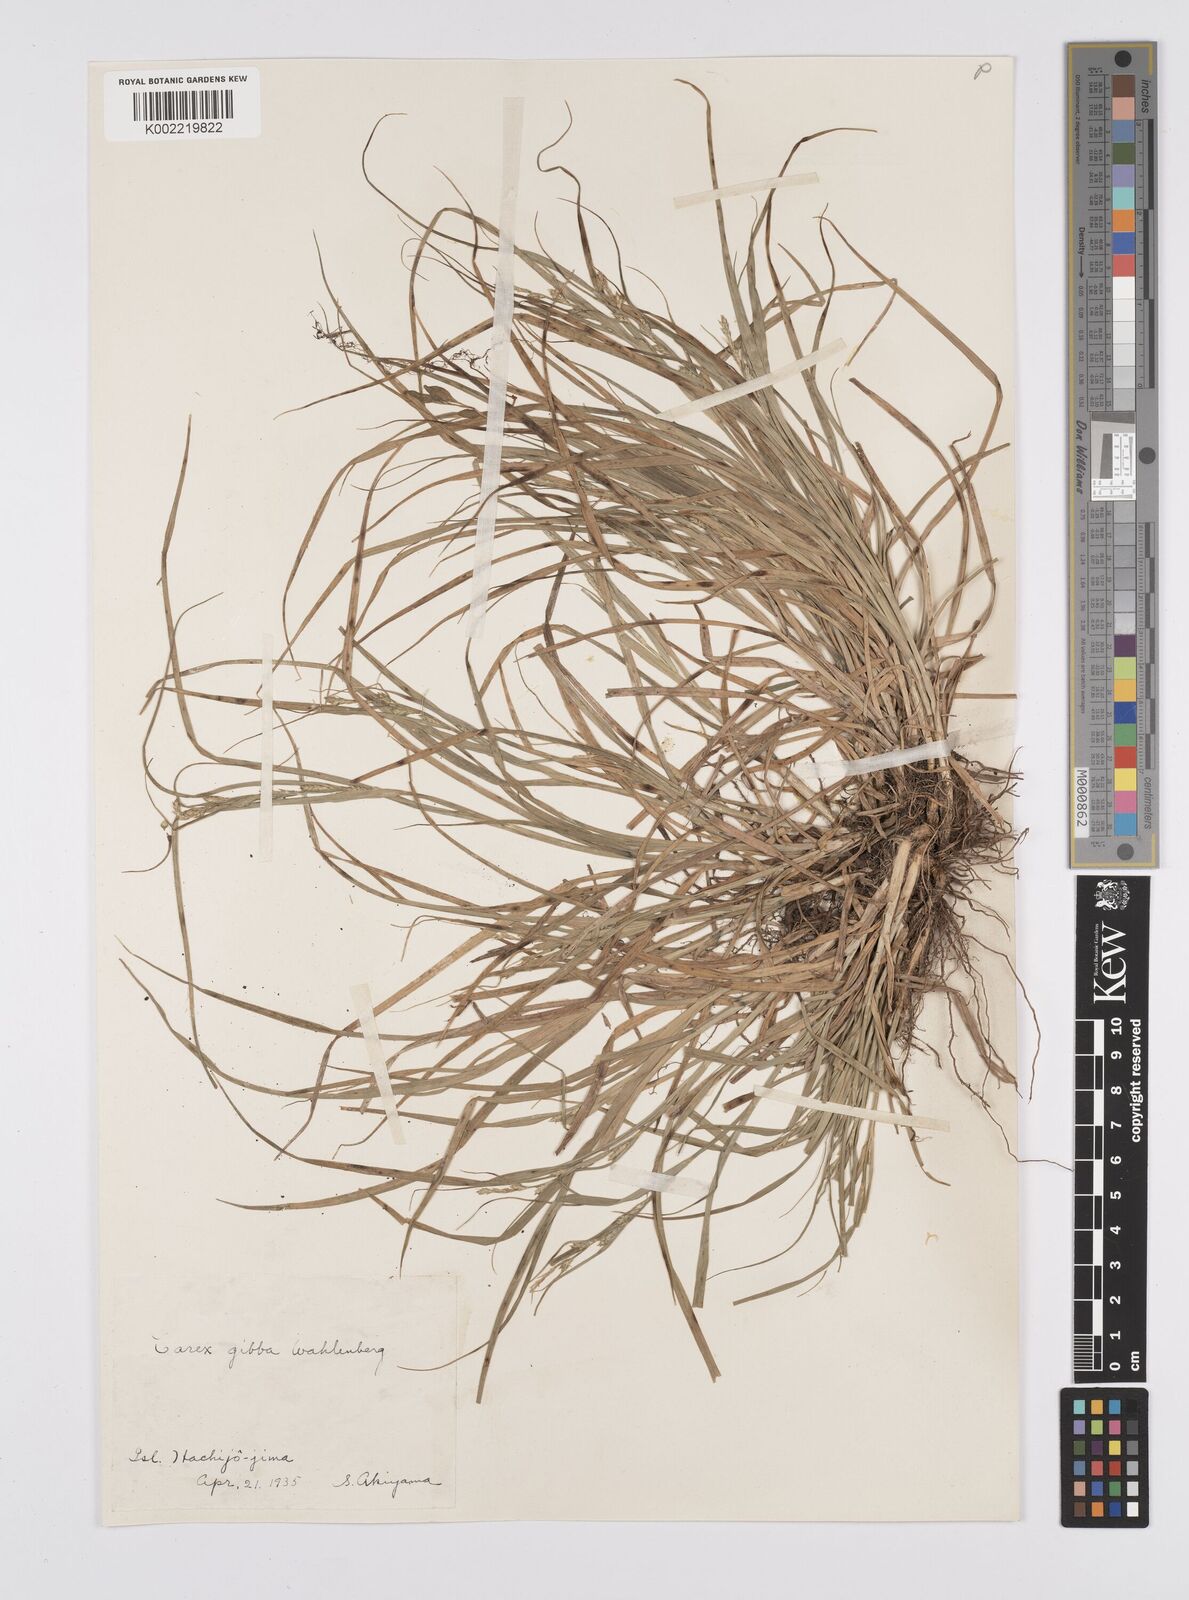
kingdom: Plantae
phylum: Tracheophyta
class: Liliopsida
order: Poales
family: Cyperaceae
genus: Carex
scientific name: Carex gibba
